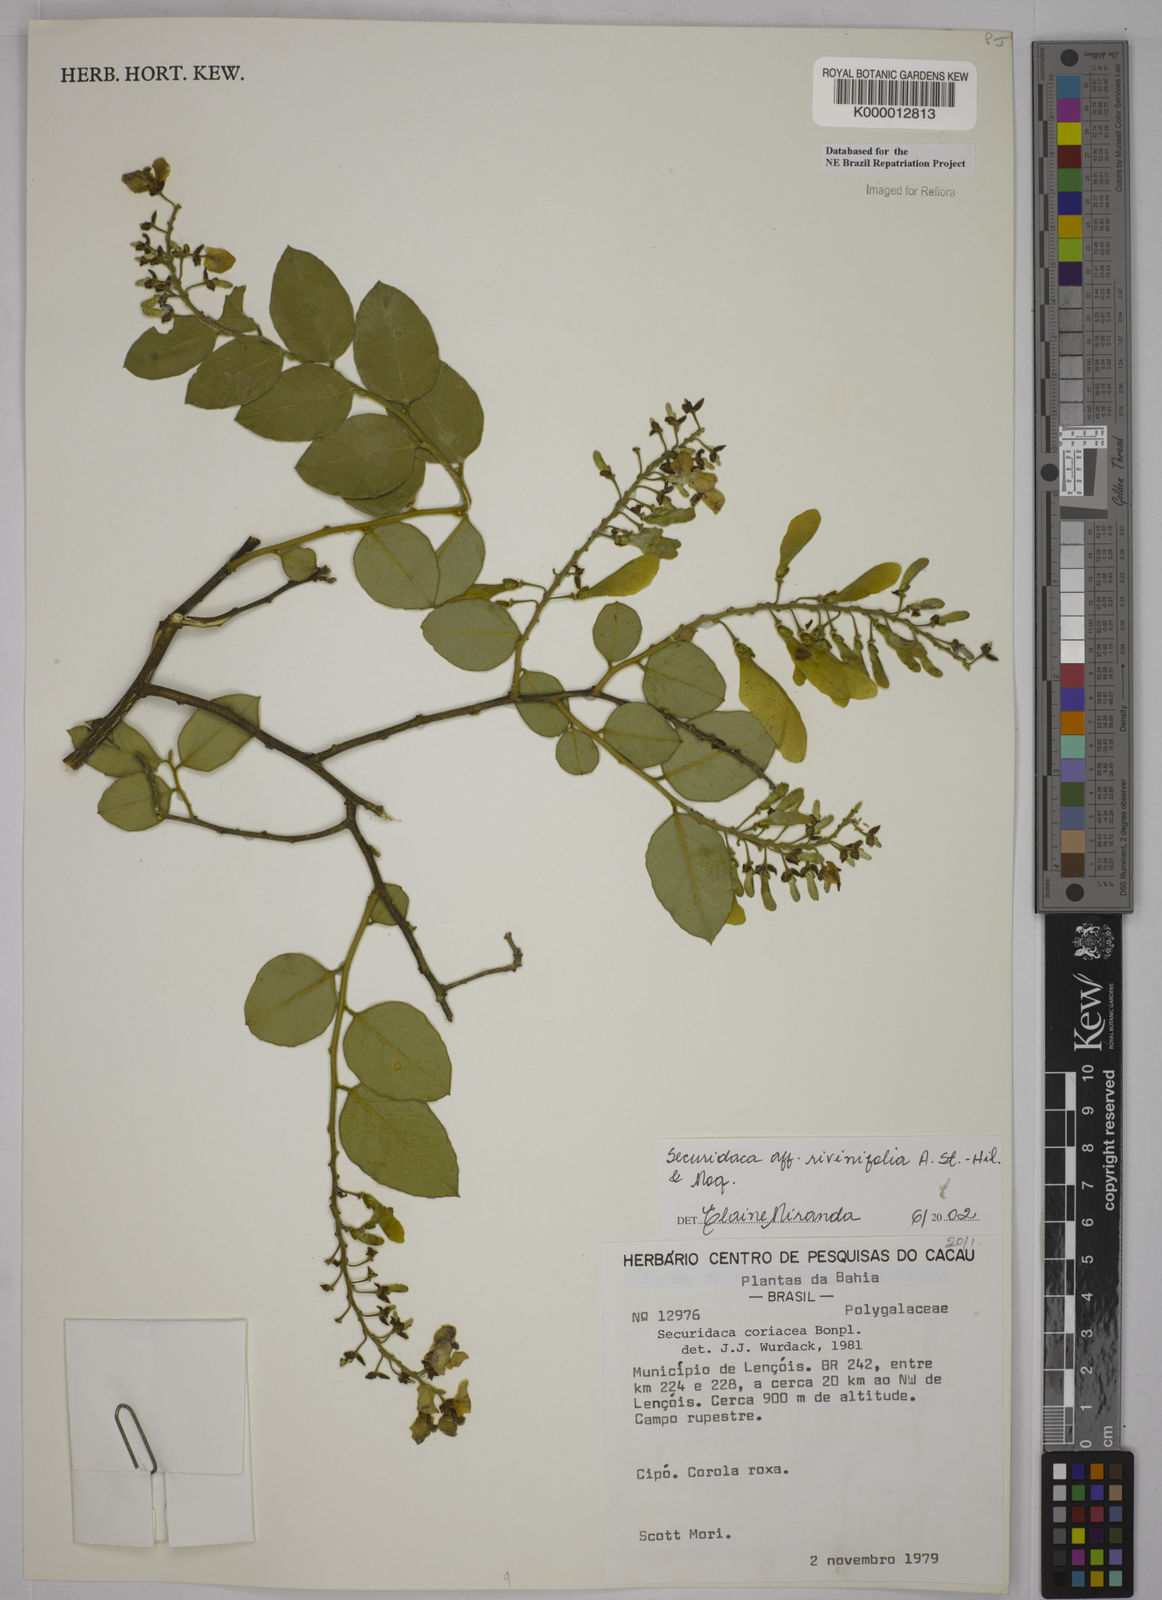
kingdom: Plantae
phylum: Tracheophyta
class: Magnoliopsida
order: Fabales
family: Polygalaceae
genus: Securidaca
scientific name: Securidaca rivinifolia
